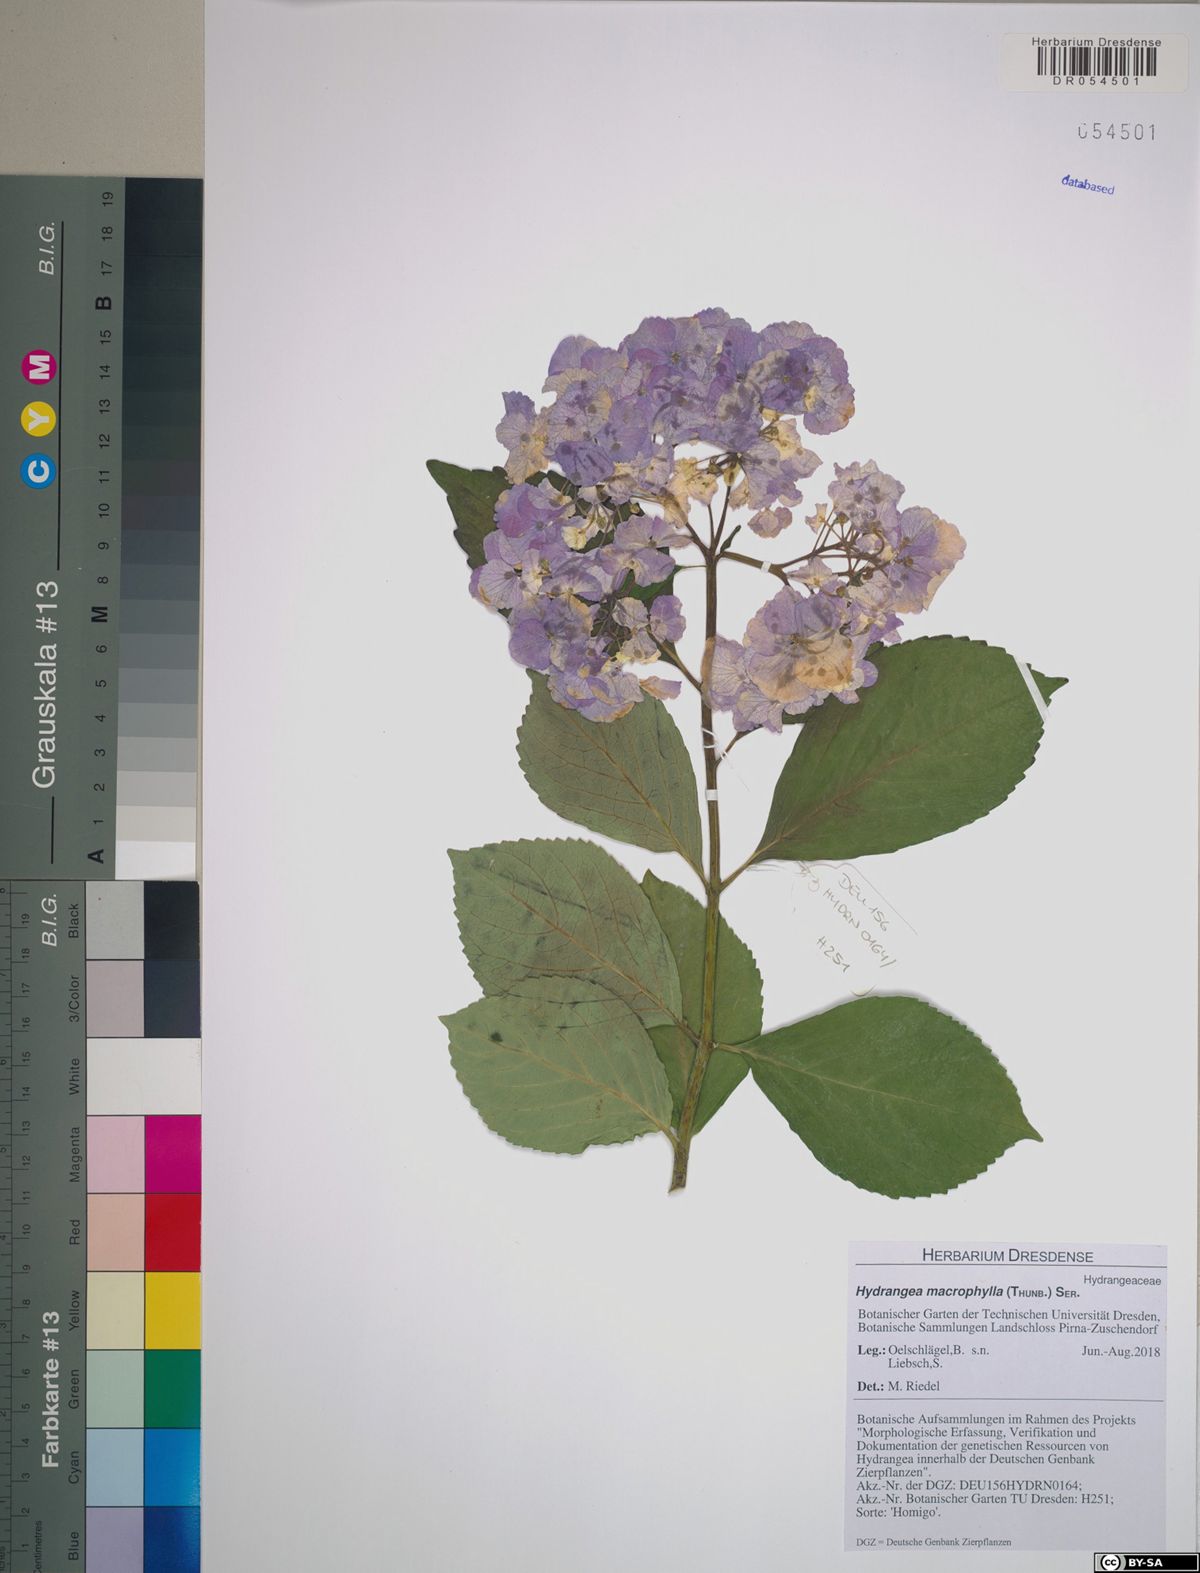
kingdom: Plantae
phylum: Tracheophyta
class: Magnoliopsida
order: Cornales
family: Hydrangeaceae
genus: Hydrangea
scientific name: Hydrangea macrophylla
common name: Hydrangea
